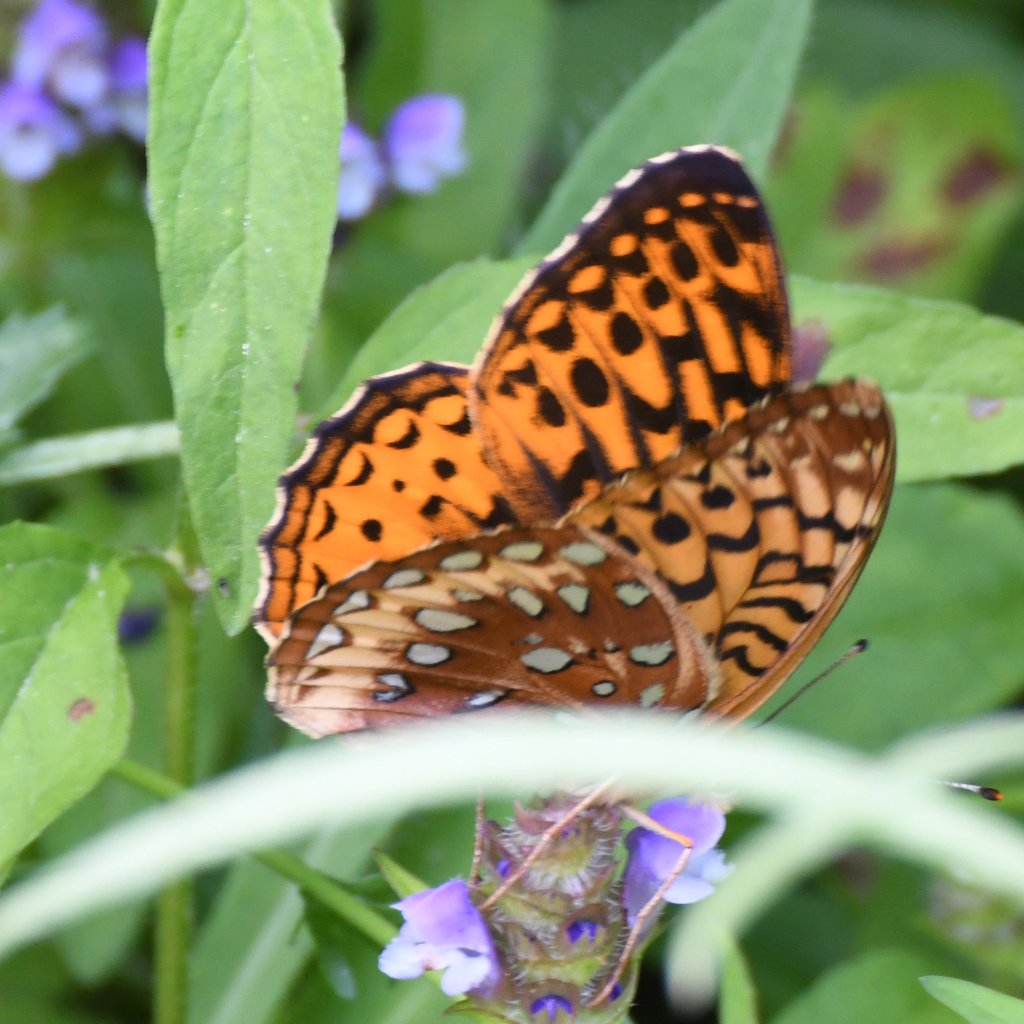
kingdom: Animalia
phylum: Arthropoda
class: Insecta
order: Lepidoptera
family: Nymphalidae
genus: Speyeria
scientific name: Speyeria cybele
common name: Great Spangled Fritillary
